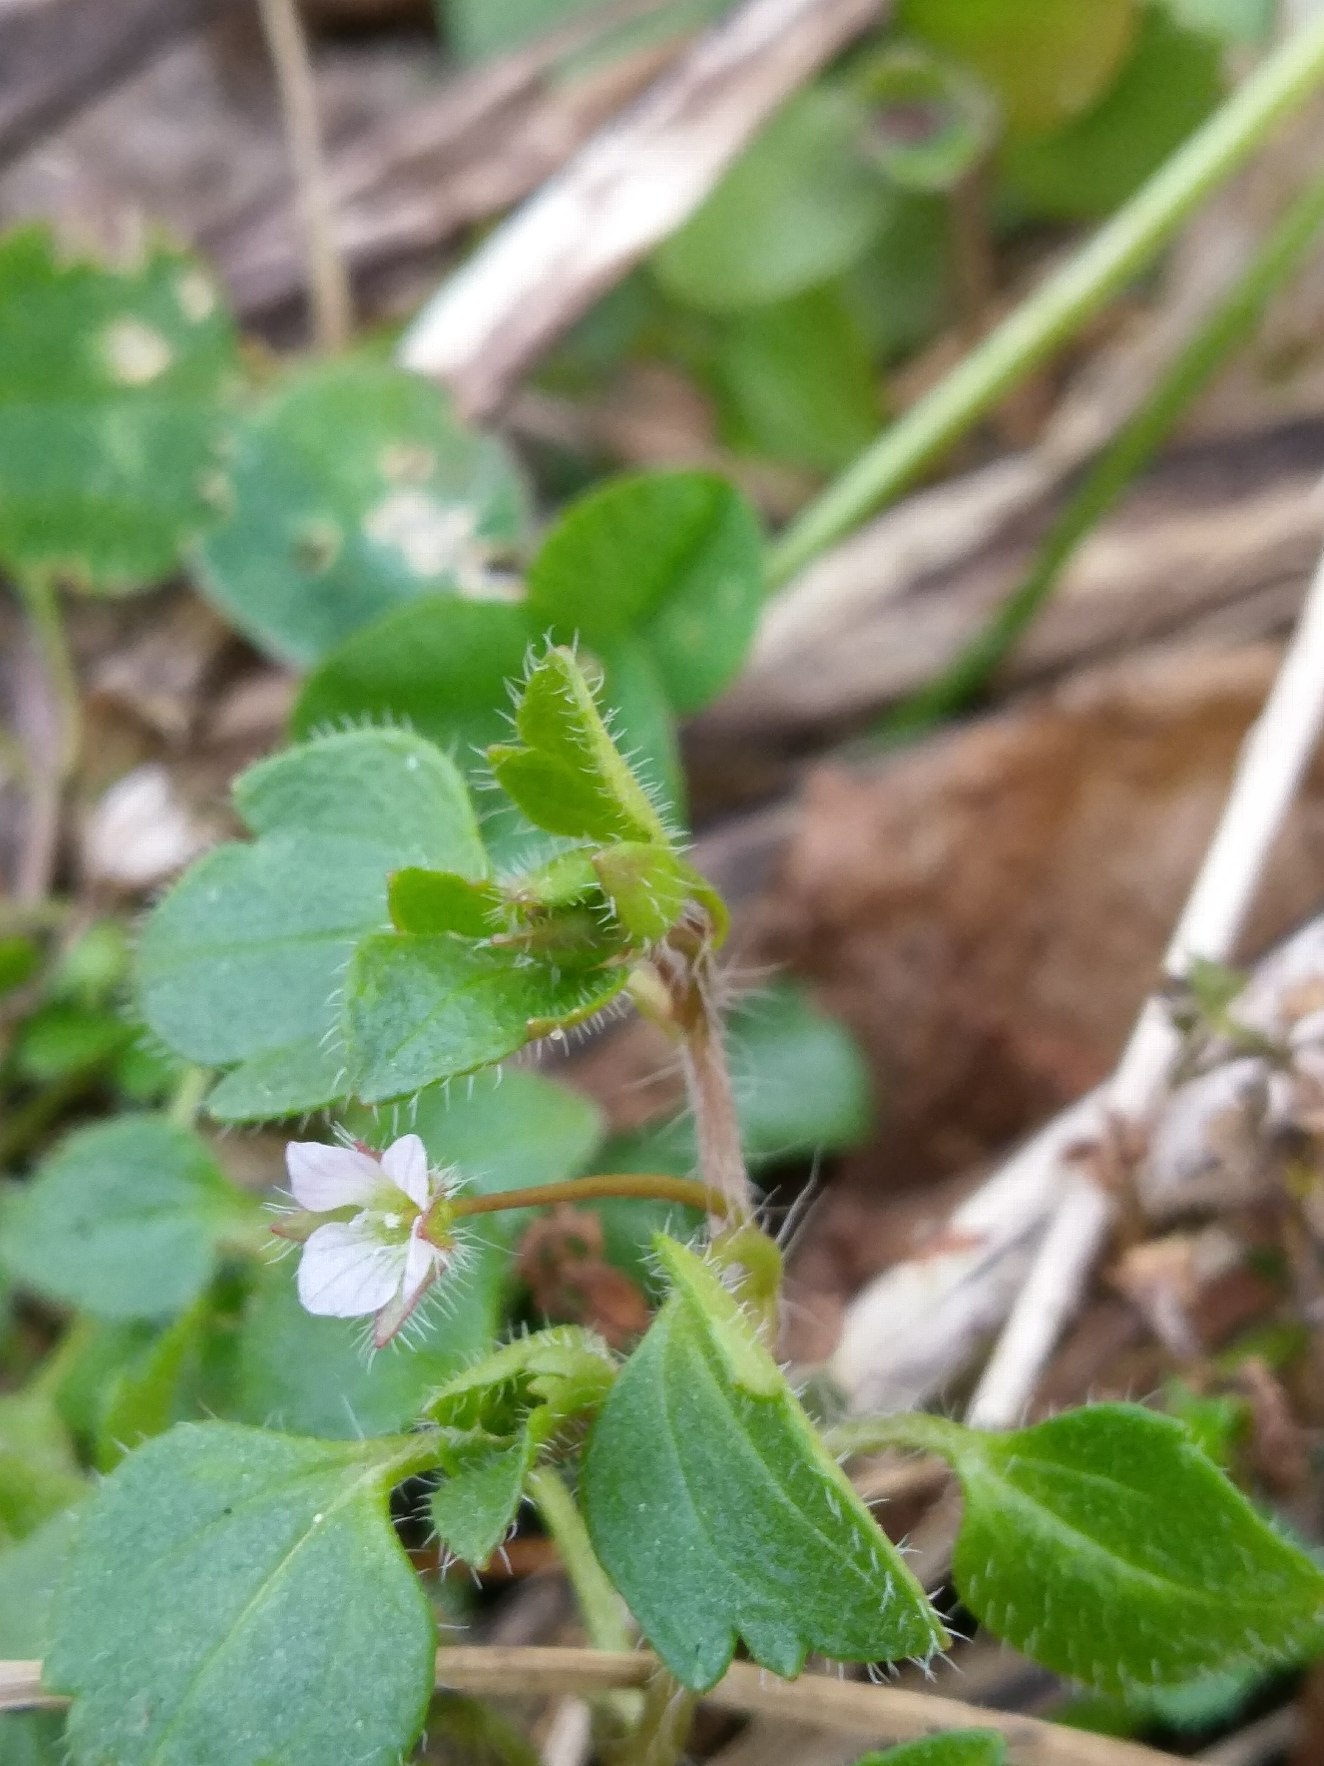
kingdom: Plantae
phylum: Tracheophyta
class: Magnoliopsida
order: Lamiales
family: Plantaginaceae
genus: Veronica
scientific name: Veronica hederifolia
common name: Vedbend-ærenpris
